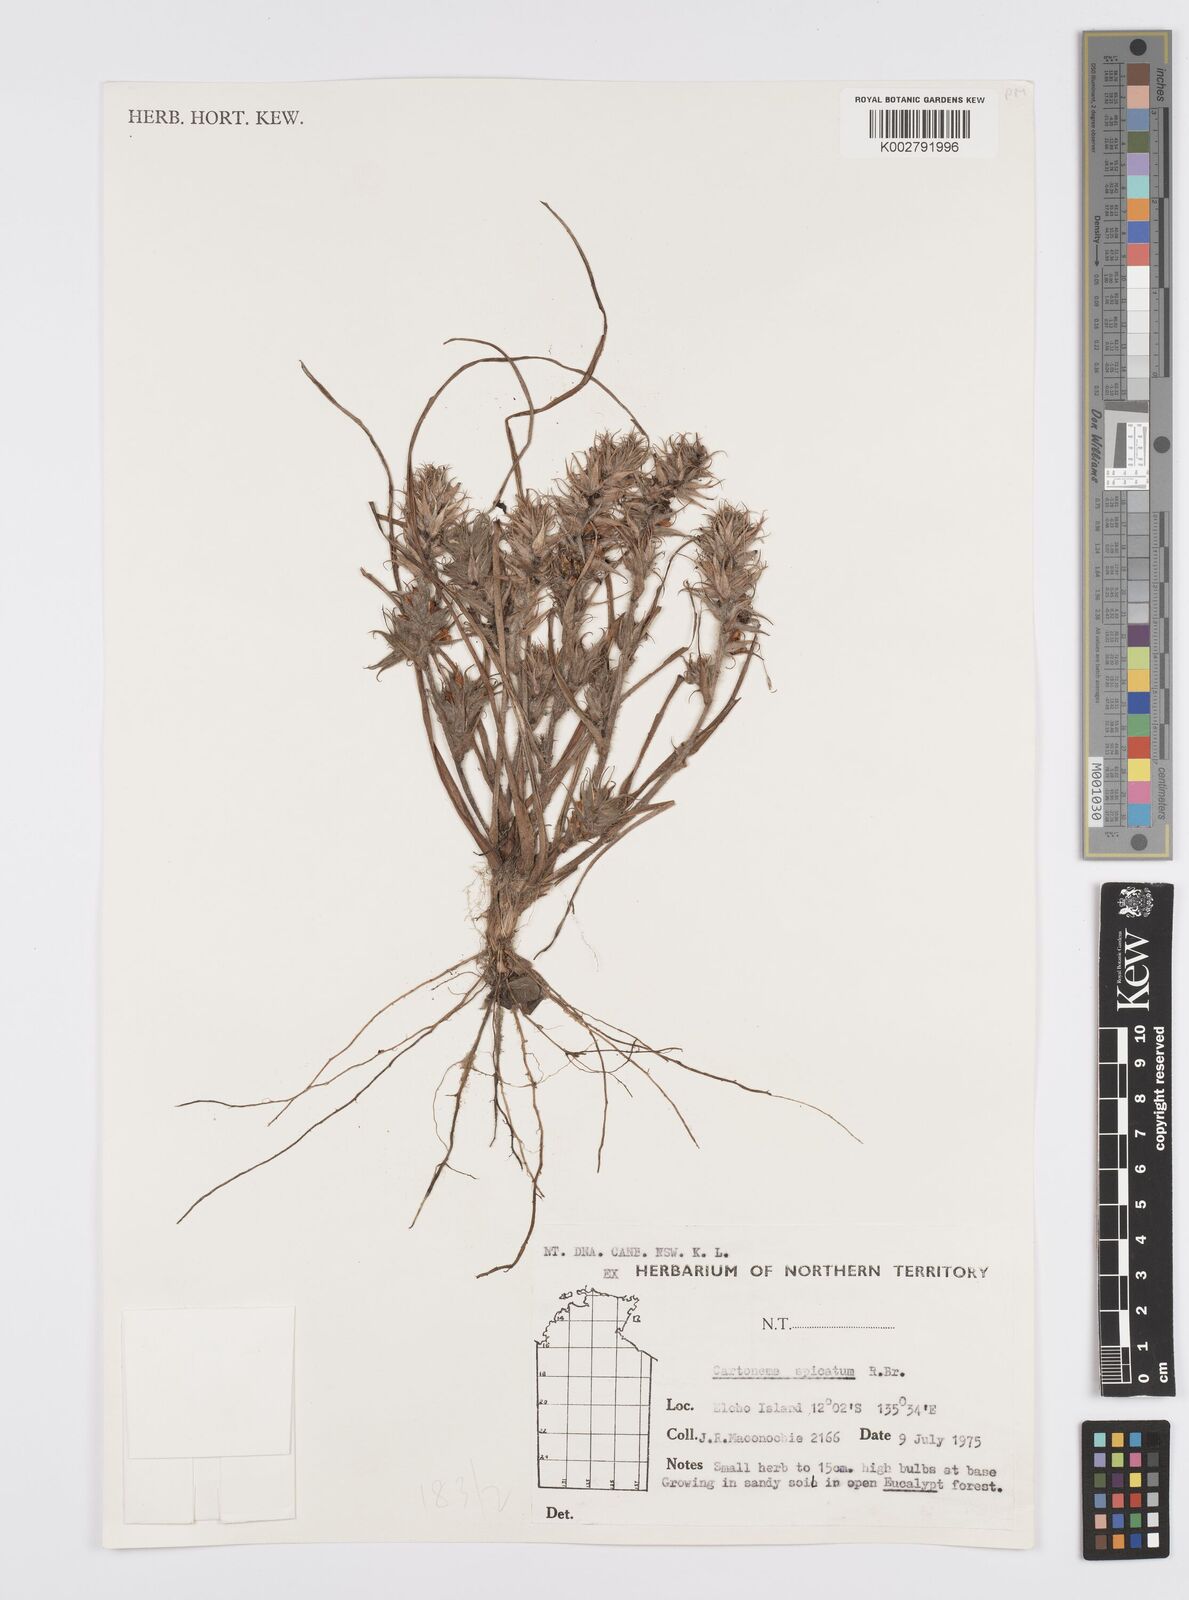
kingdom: Plantae
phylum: Tracheophyta
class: Liliopsida
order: Commelinales
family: Commelinaceae
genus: Cartonema
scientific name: Cartonema spicatum
